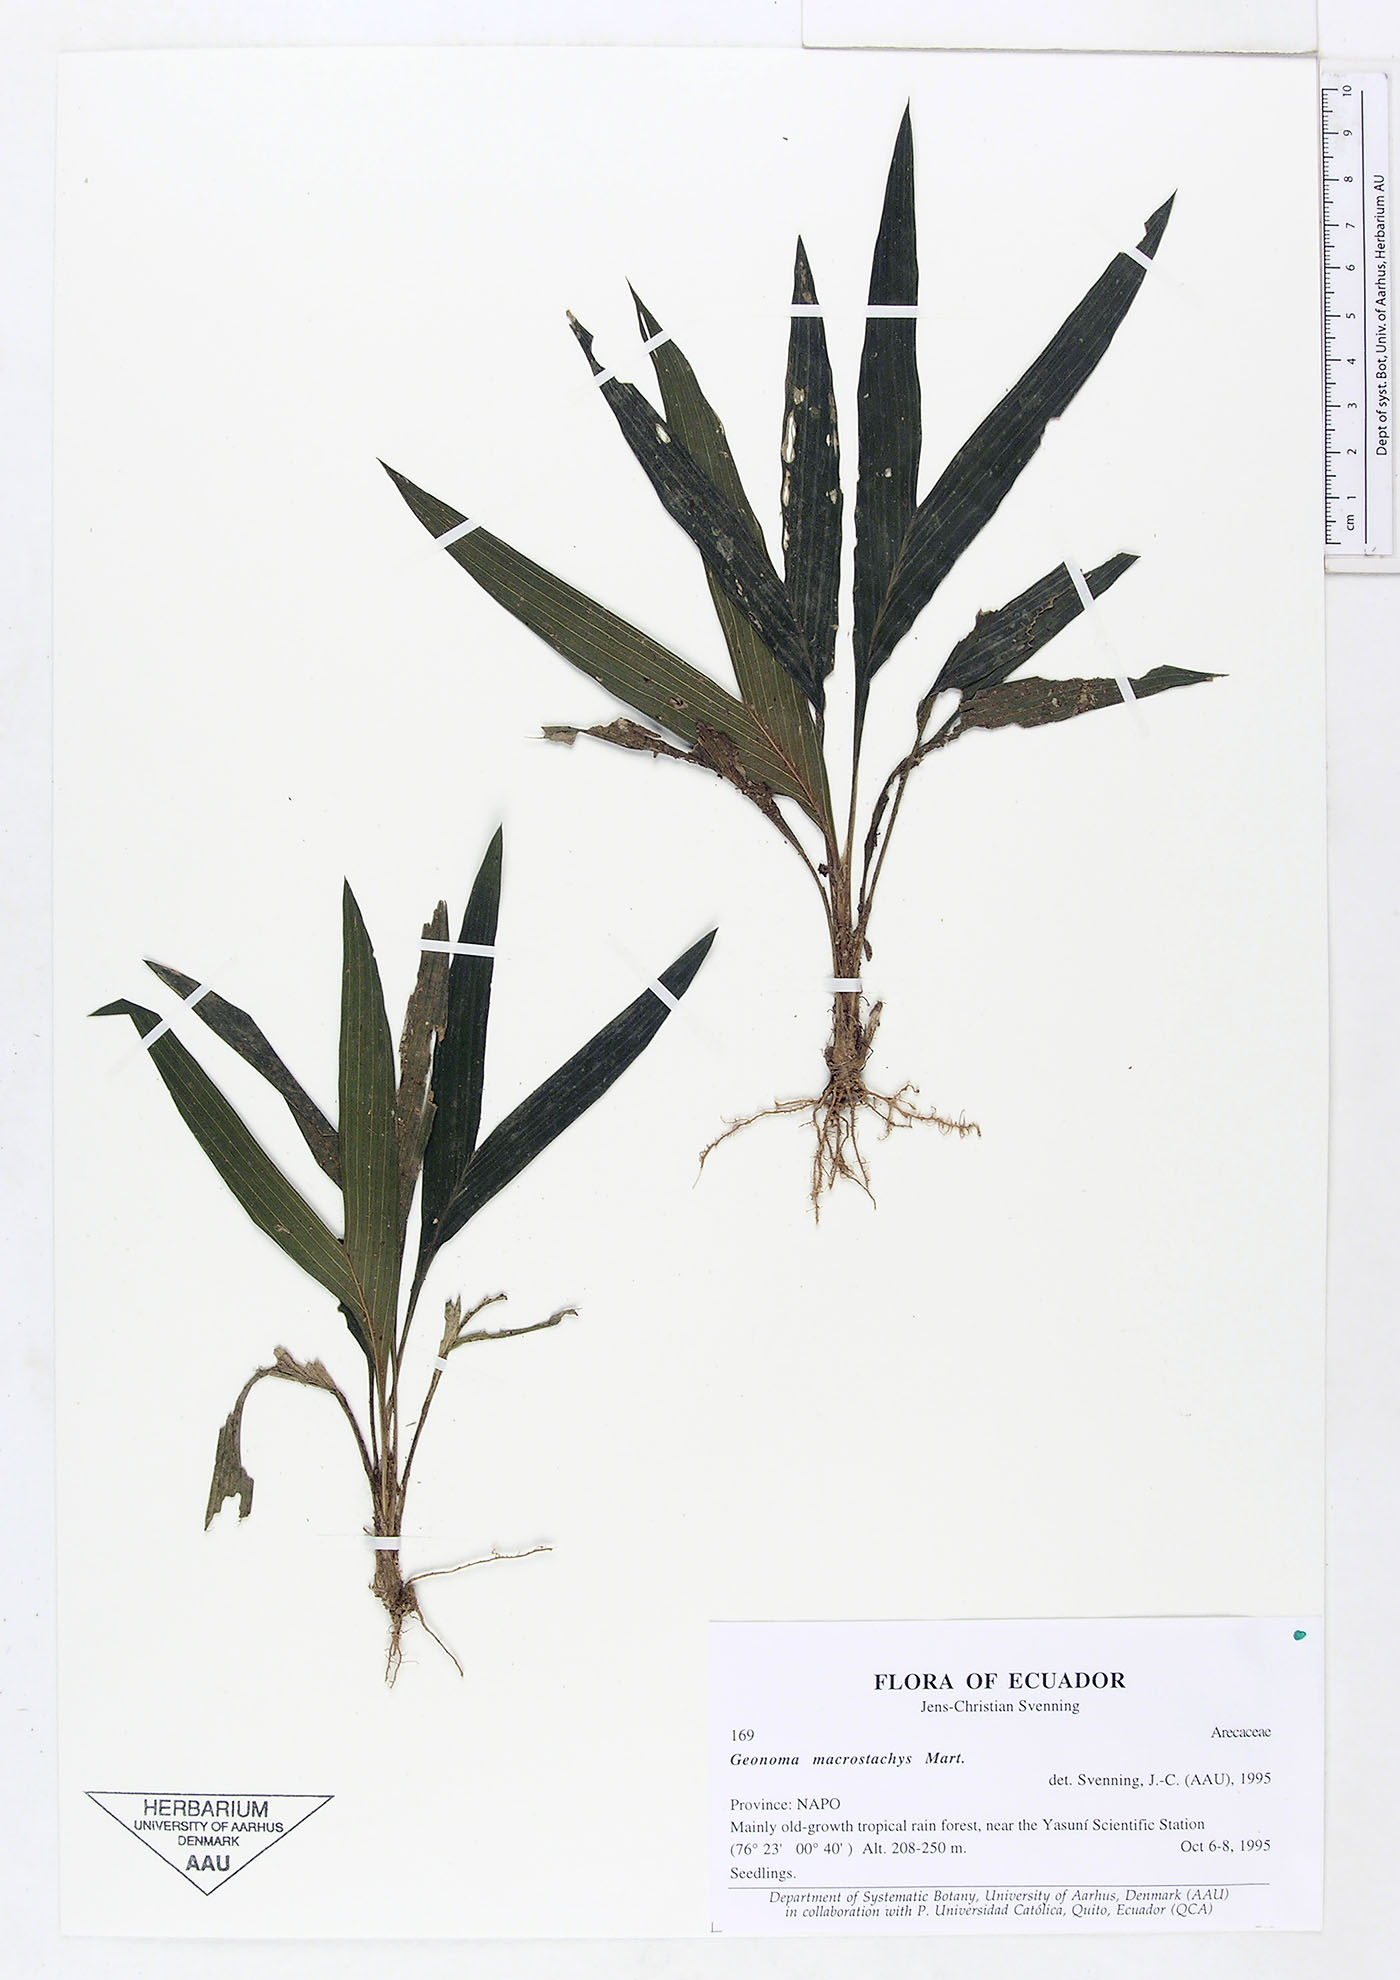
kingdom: Plantae
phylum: Tracheophyta
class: Liliopsida
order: Arecales
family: Arecaceae
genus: Geonoma
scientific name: Geonoma macrostachys
